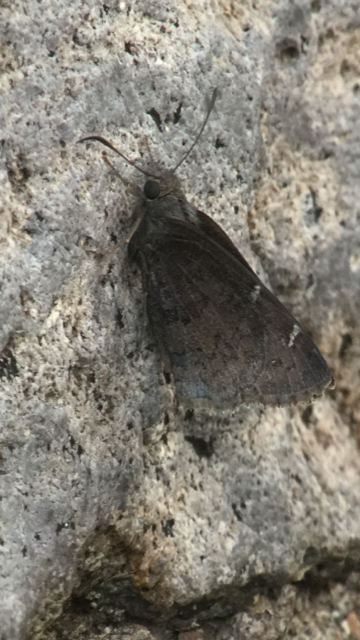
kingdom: Animalia
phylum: Arthropoda
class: Insecta
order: Lepidoptera
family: Hesperiidae
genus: Autochton
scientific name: Autochton
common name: Northern Cloudywing
